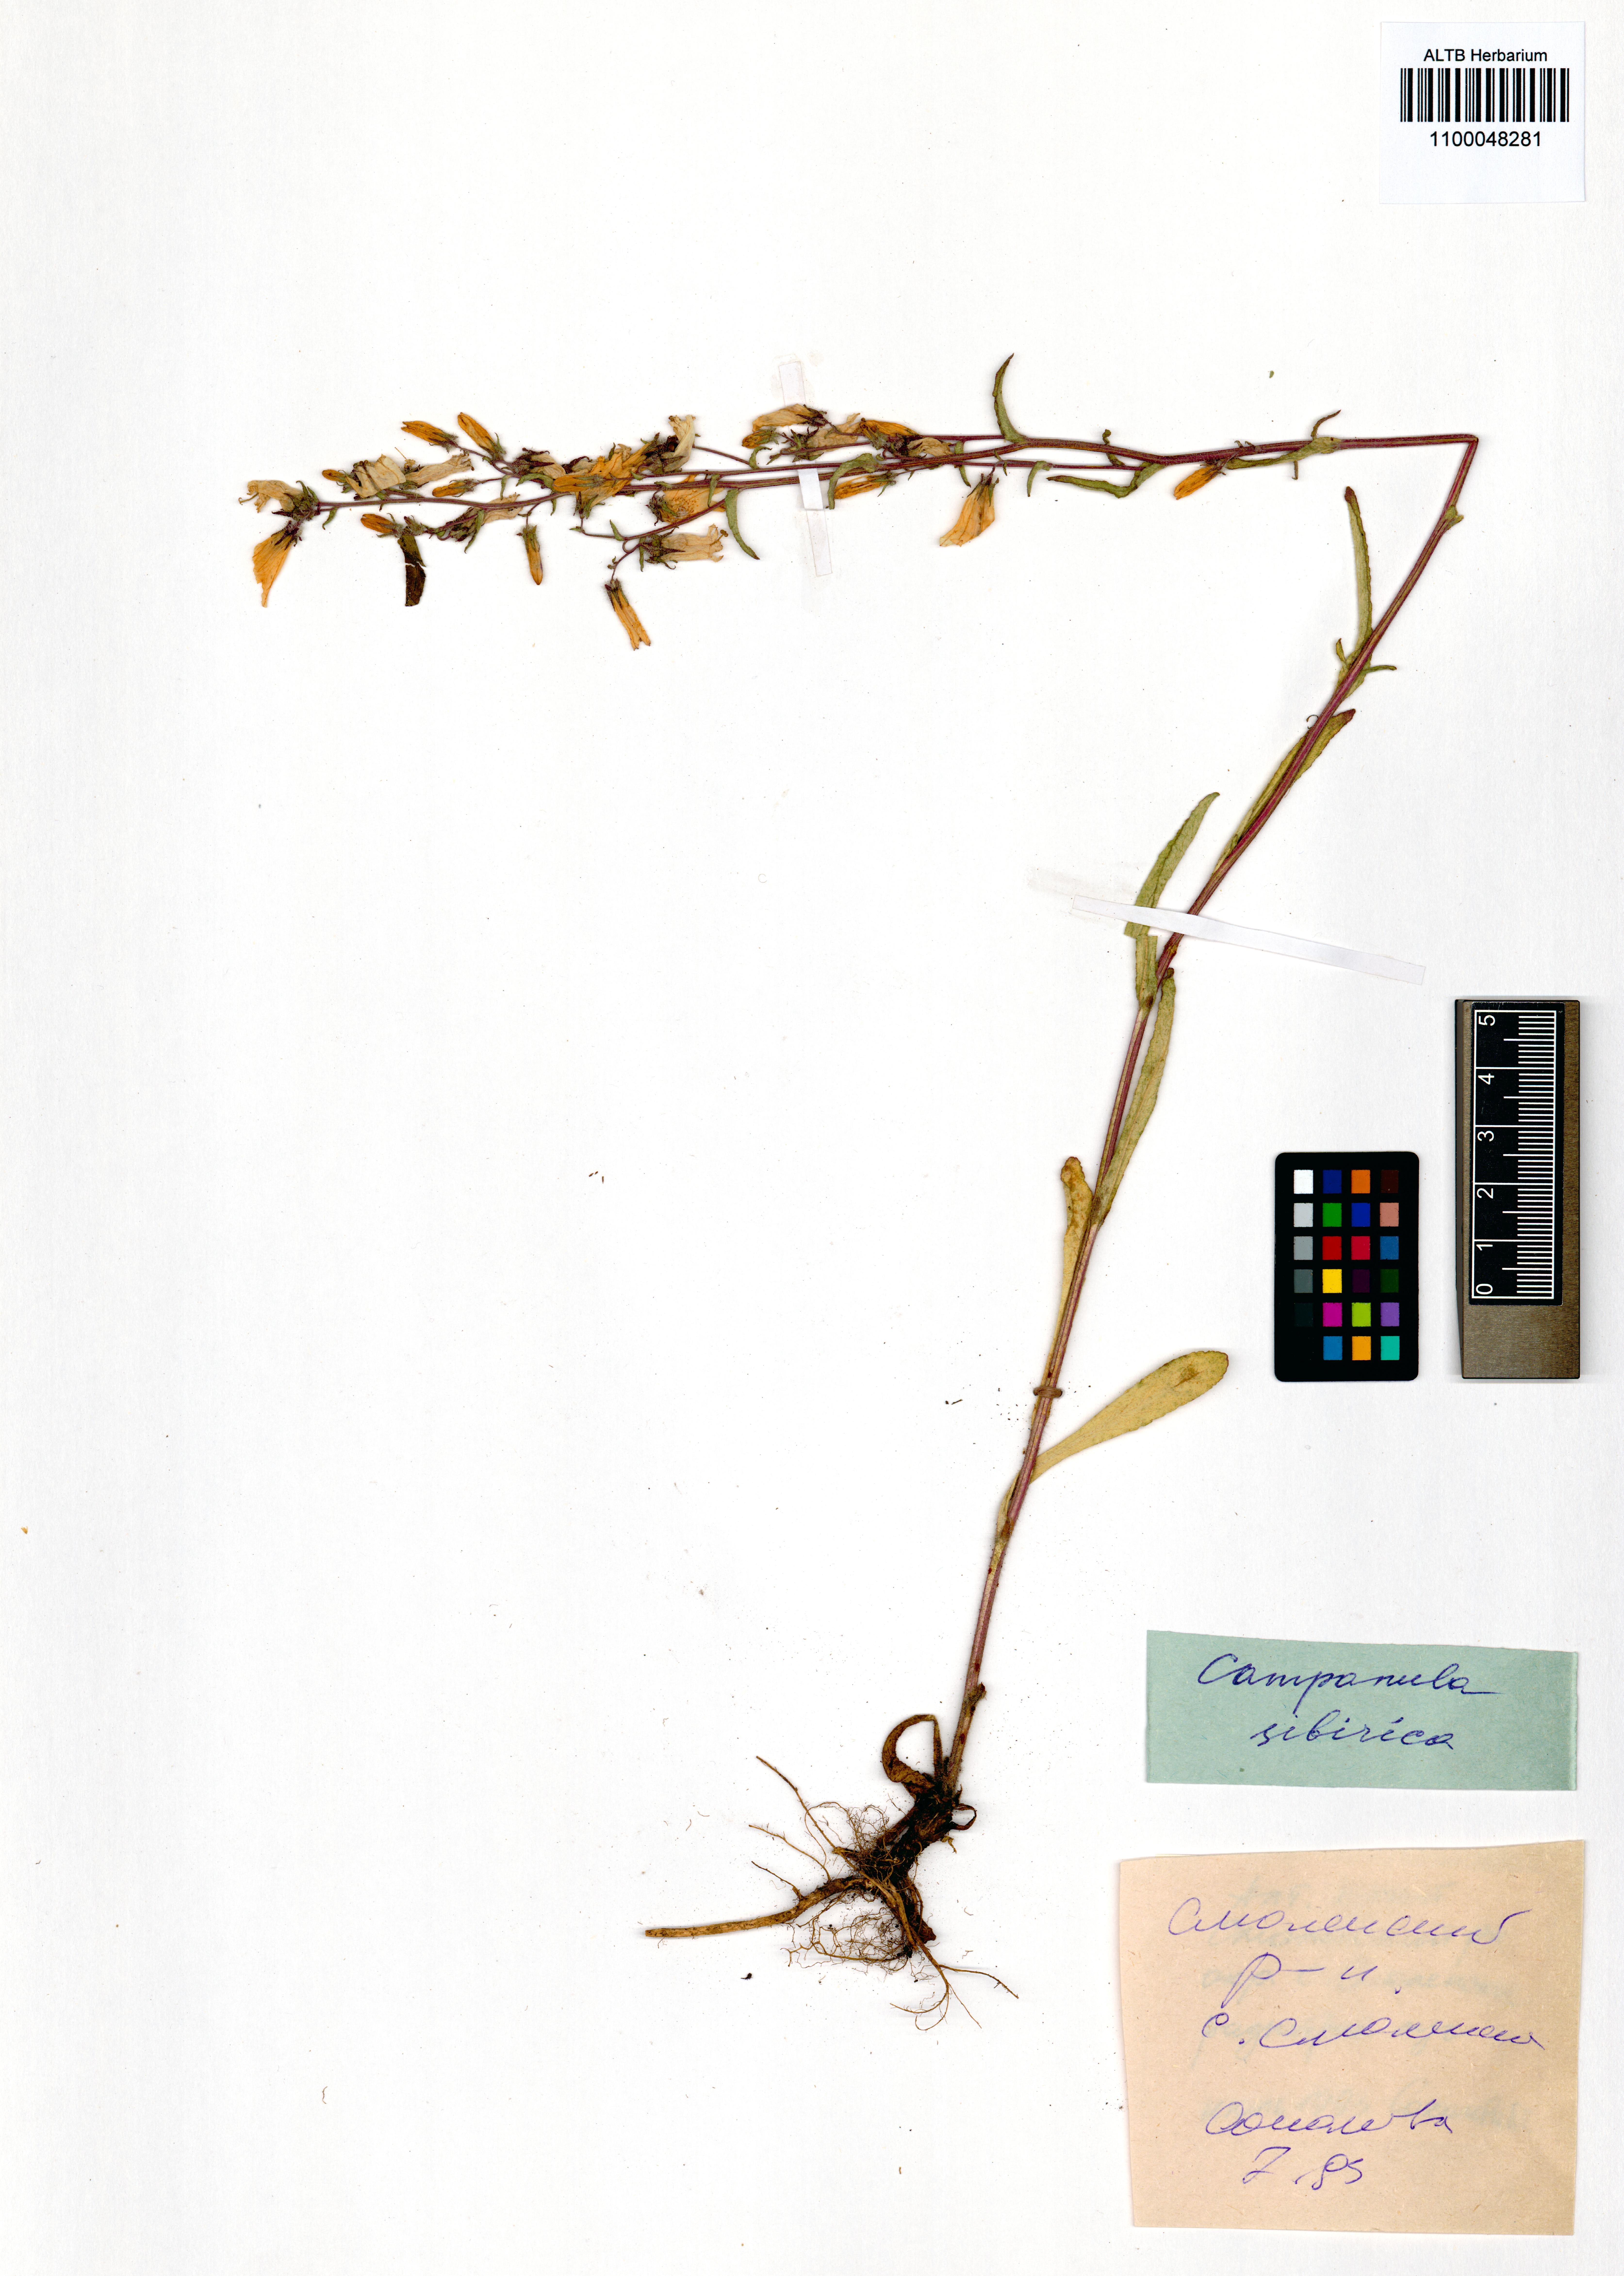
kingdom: Plantae
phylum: Tracheophyta
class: Magnoliopsida
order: Asterales
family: Campanulaceae
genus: Campanula
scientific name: Campanula sibirica
